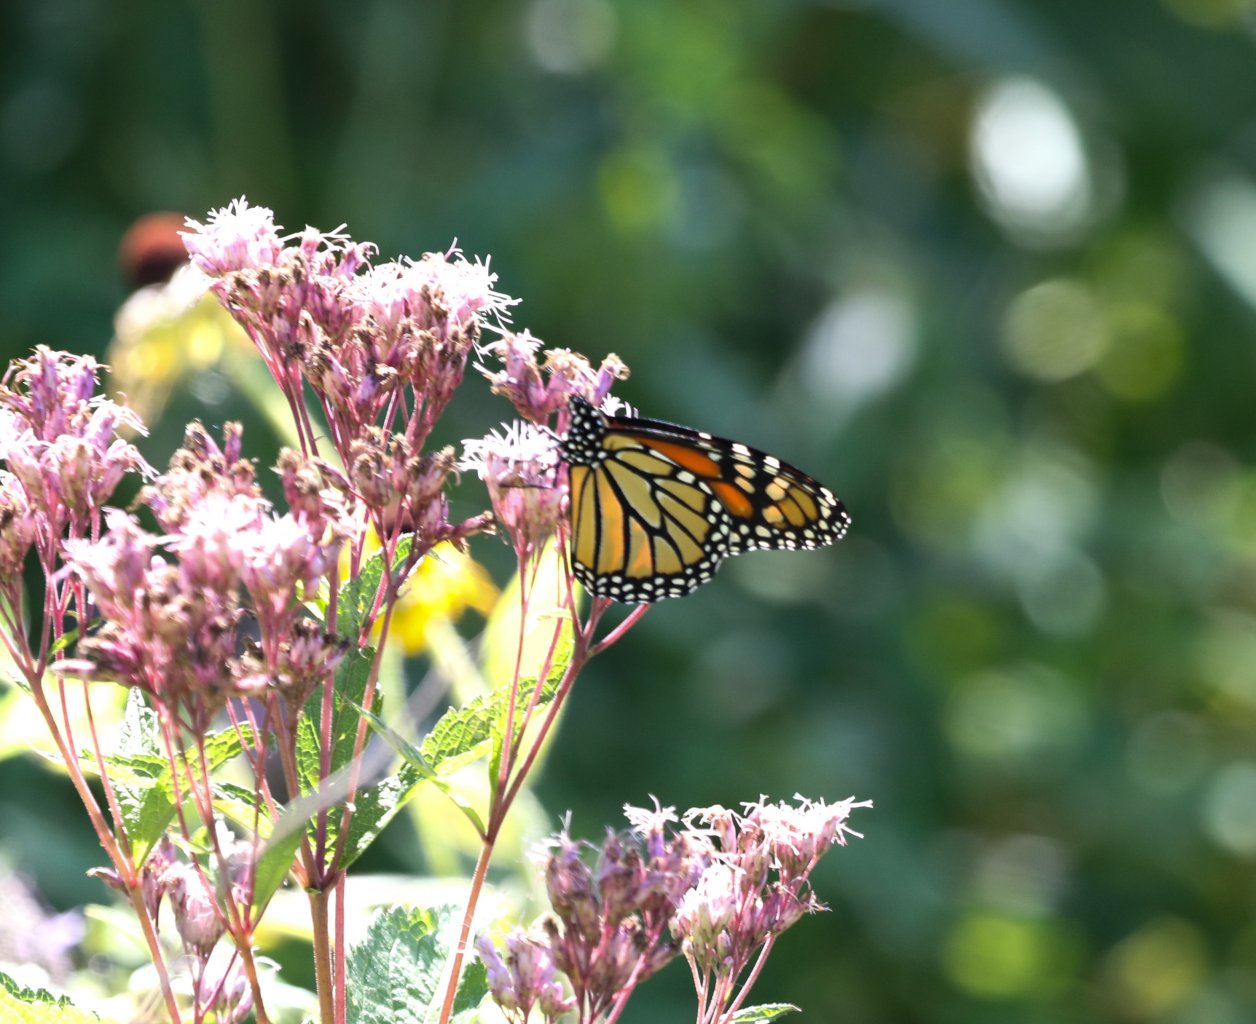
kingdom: Animalia
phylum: Arthropoda
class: Insecta
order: Lepidoptera
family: Nymphalidae
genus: Danaus
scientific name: Danaus plexippus
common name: Monarch
